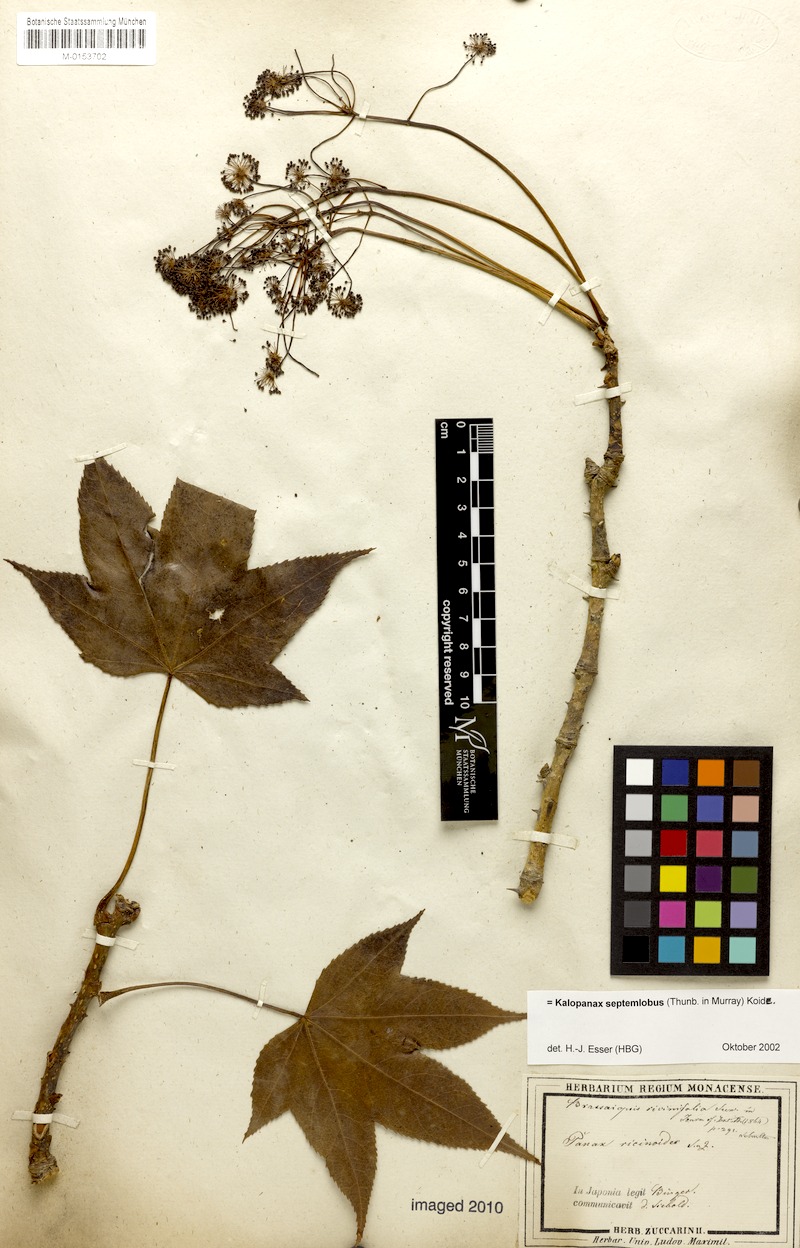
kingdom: Plantae
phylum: Tracheophyta
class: Magnoliopsida
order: Apiales
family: Araliaceae
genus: Kalopanax
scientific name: Kalopanax septemlobus
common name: Castor aralia
